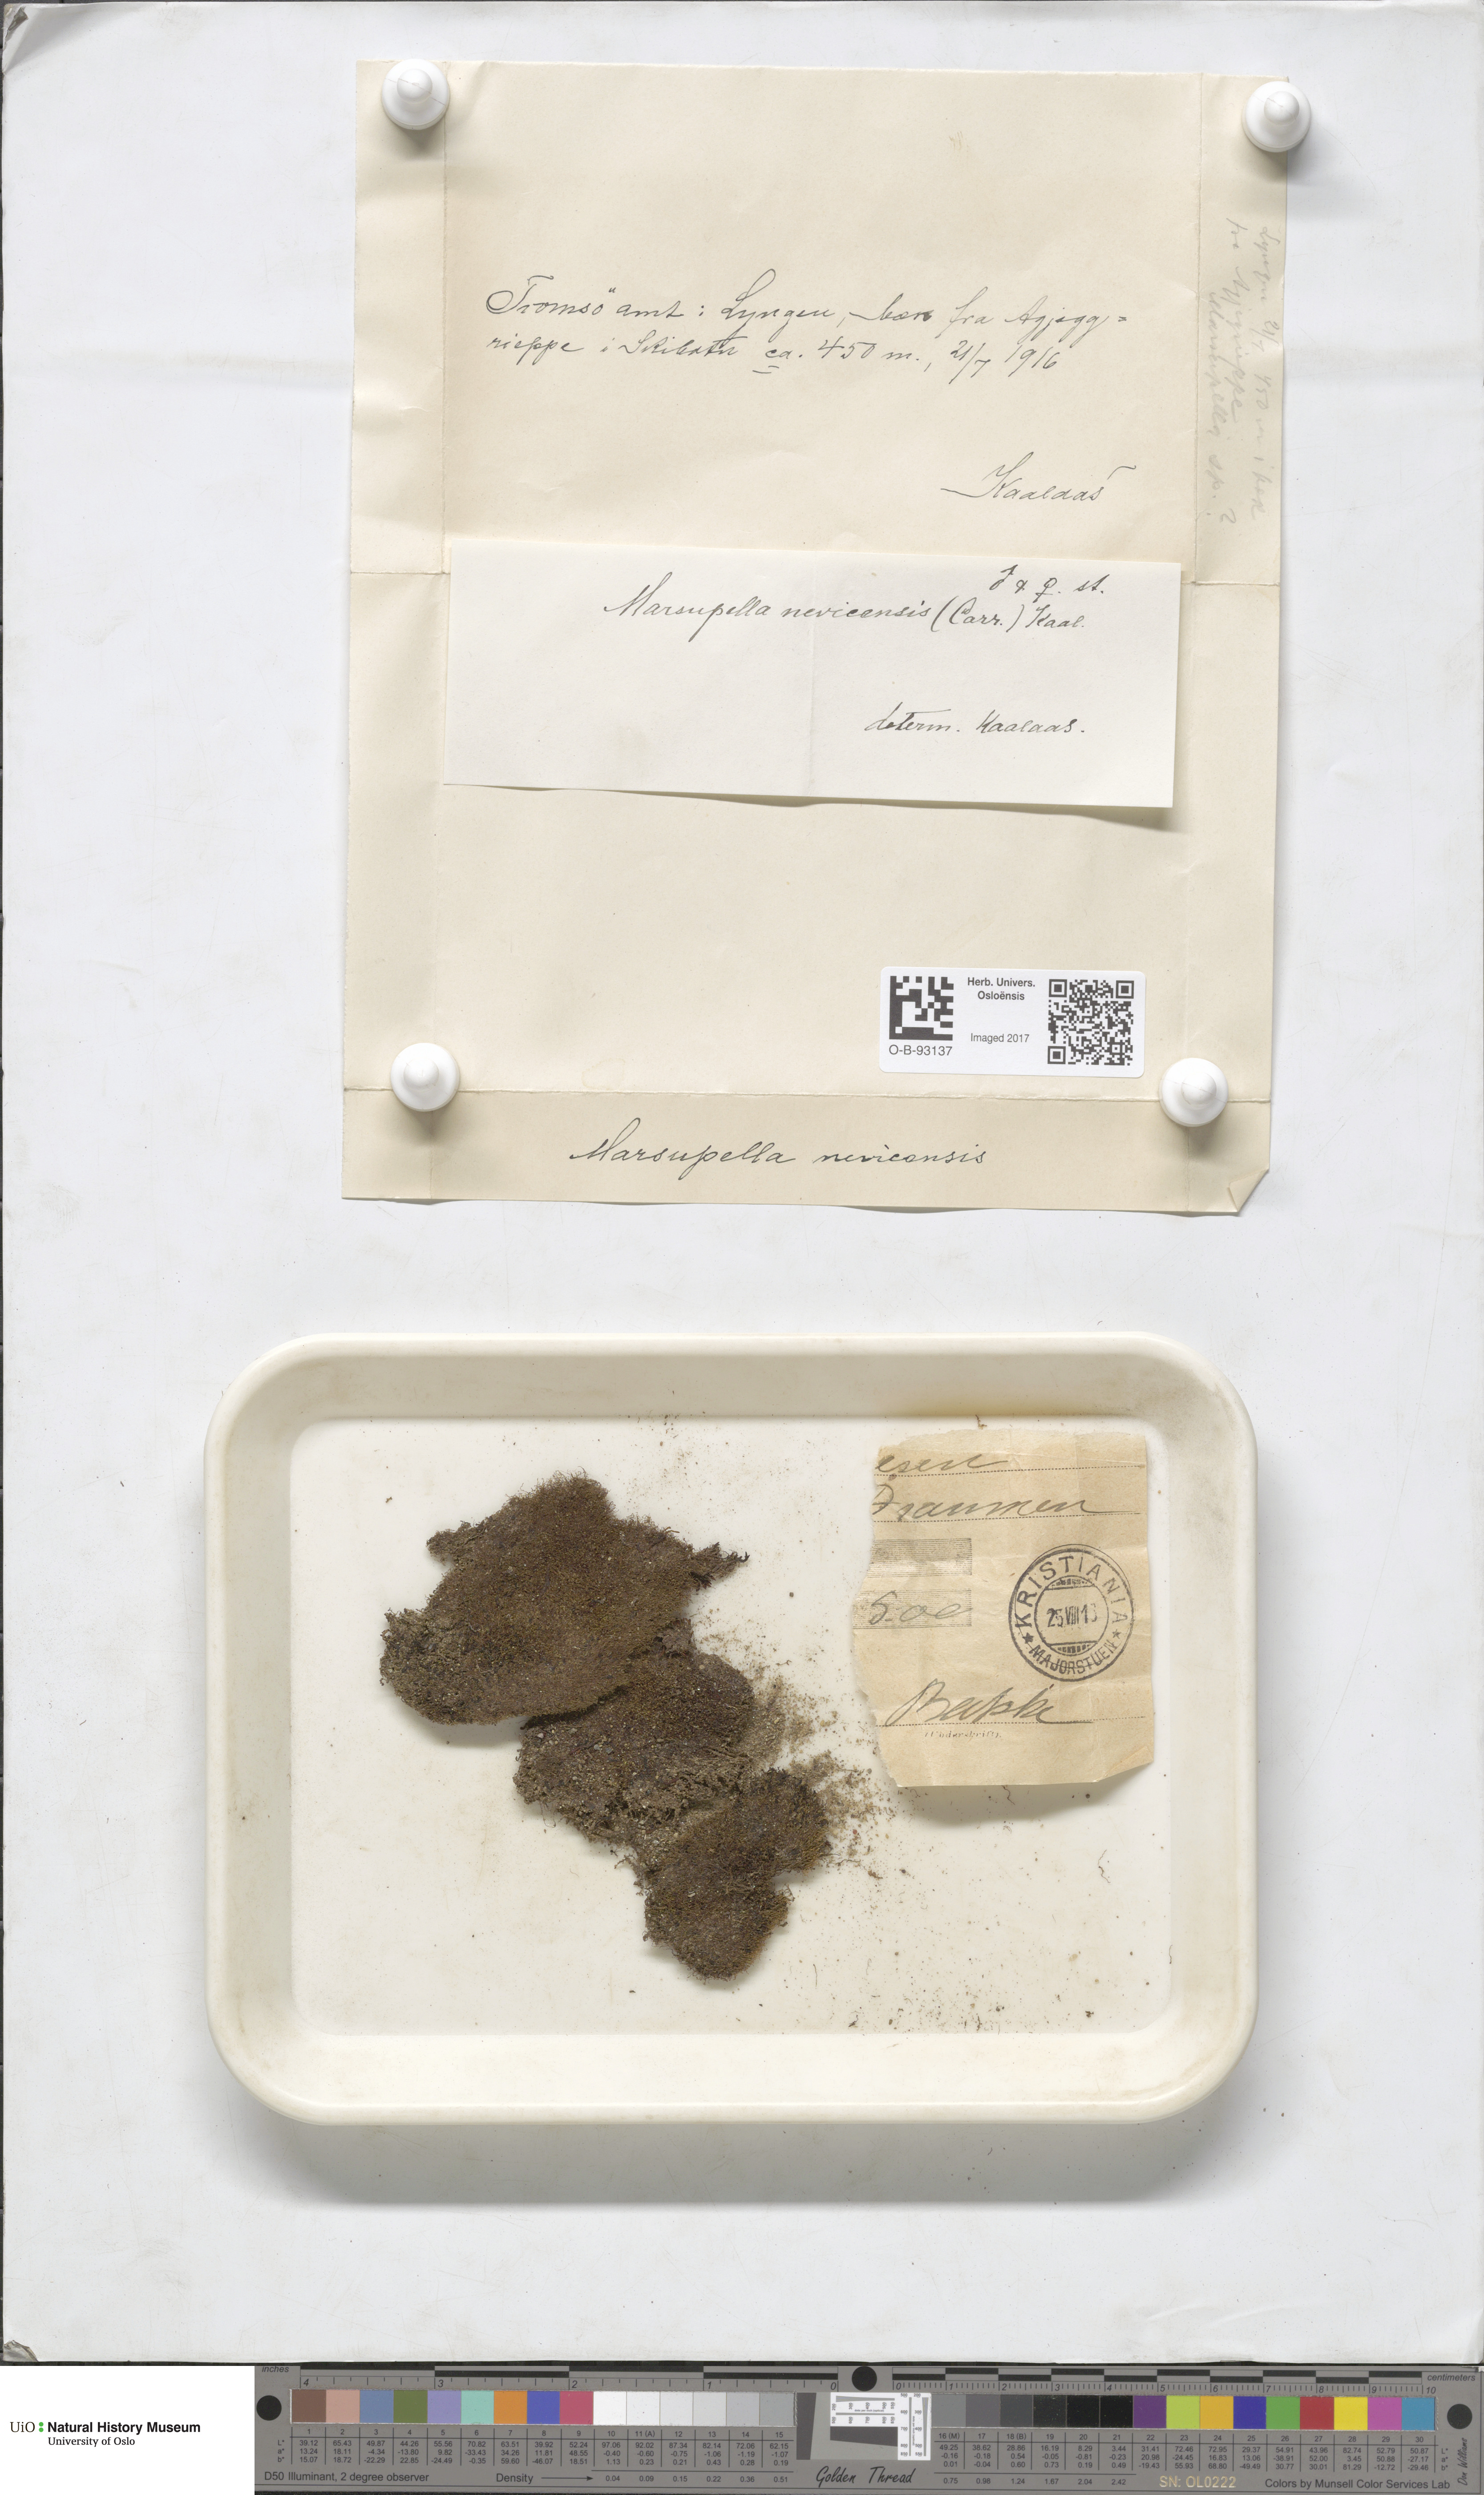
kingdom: Plantae
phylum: Marchantiophyta
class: Jungermanniopsida
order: Jungermanniales
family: Gymnomitriaceae
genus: Marsupella
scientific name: Marsupella boeckii
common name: Boeck s rustwort
